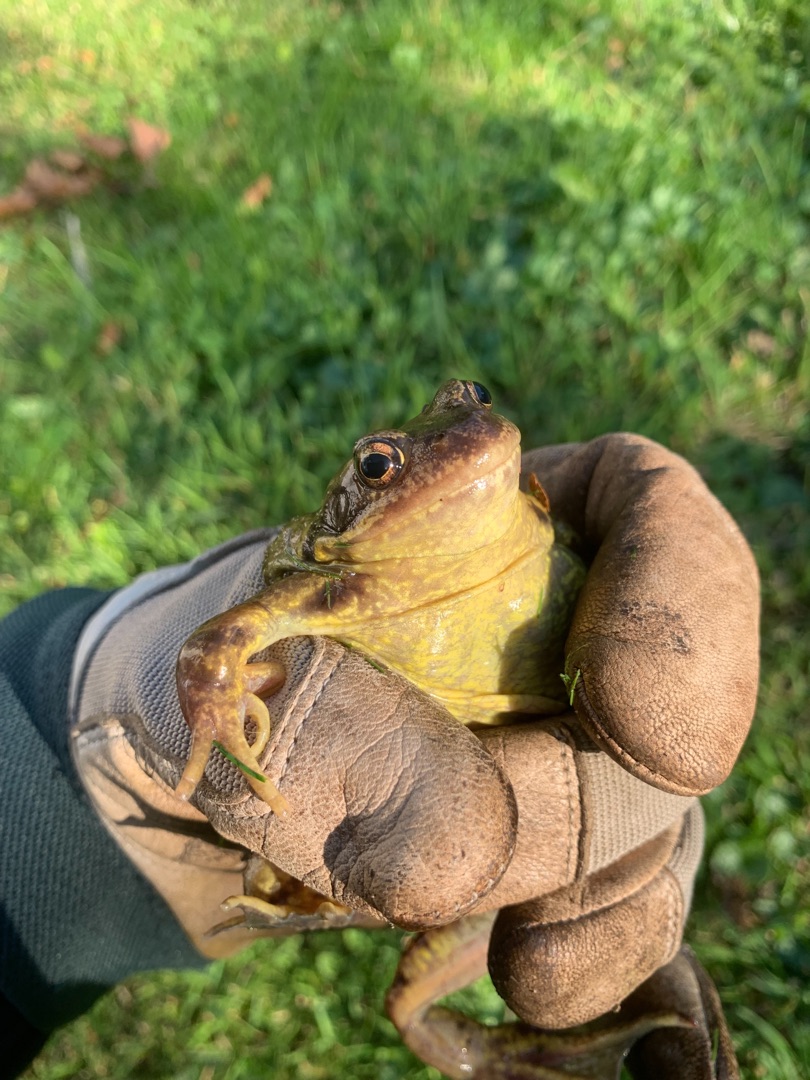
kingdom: Animalia
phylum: Chordata
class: Amphibia
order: Anura
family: Ranidae
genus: Rana
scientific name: Rana temporaria
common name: Butsnudet frø
